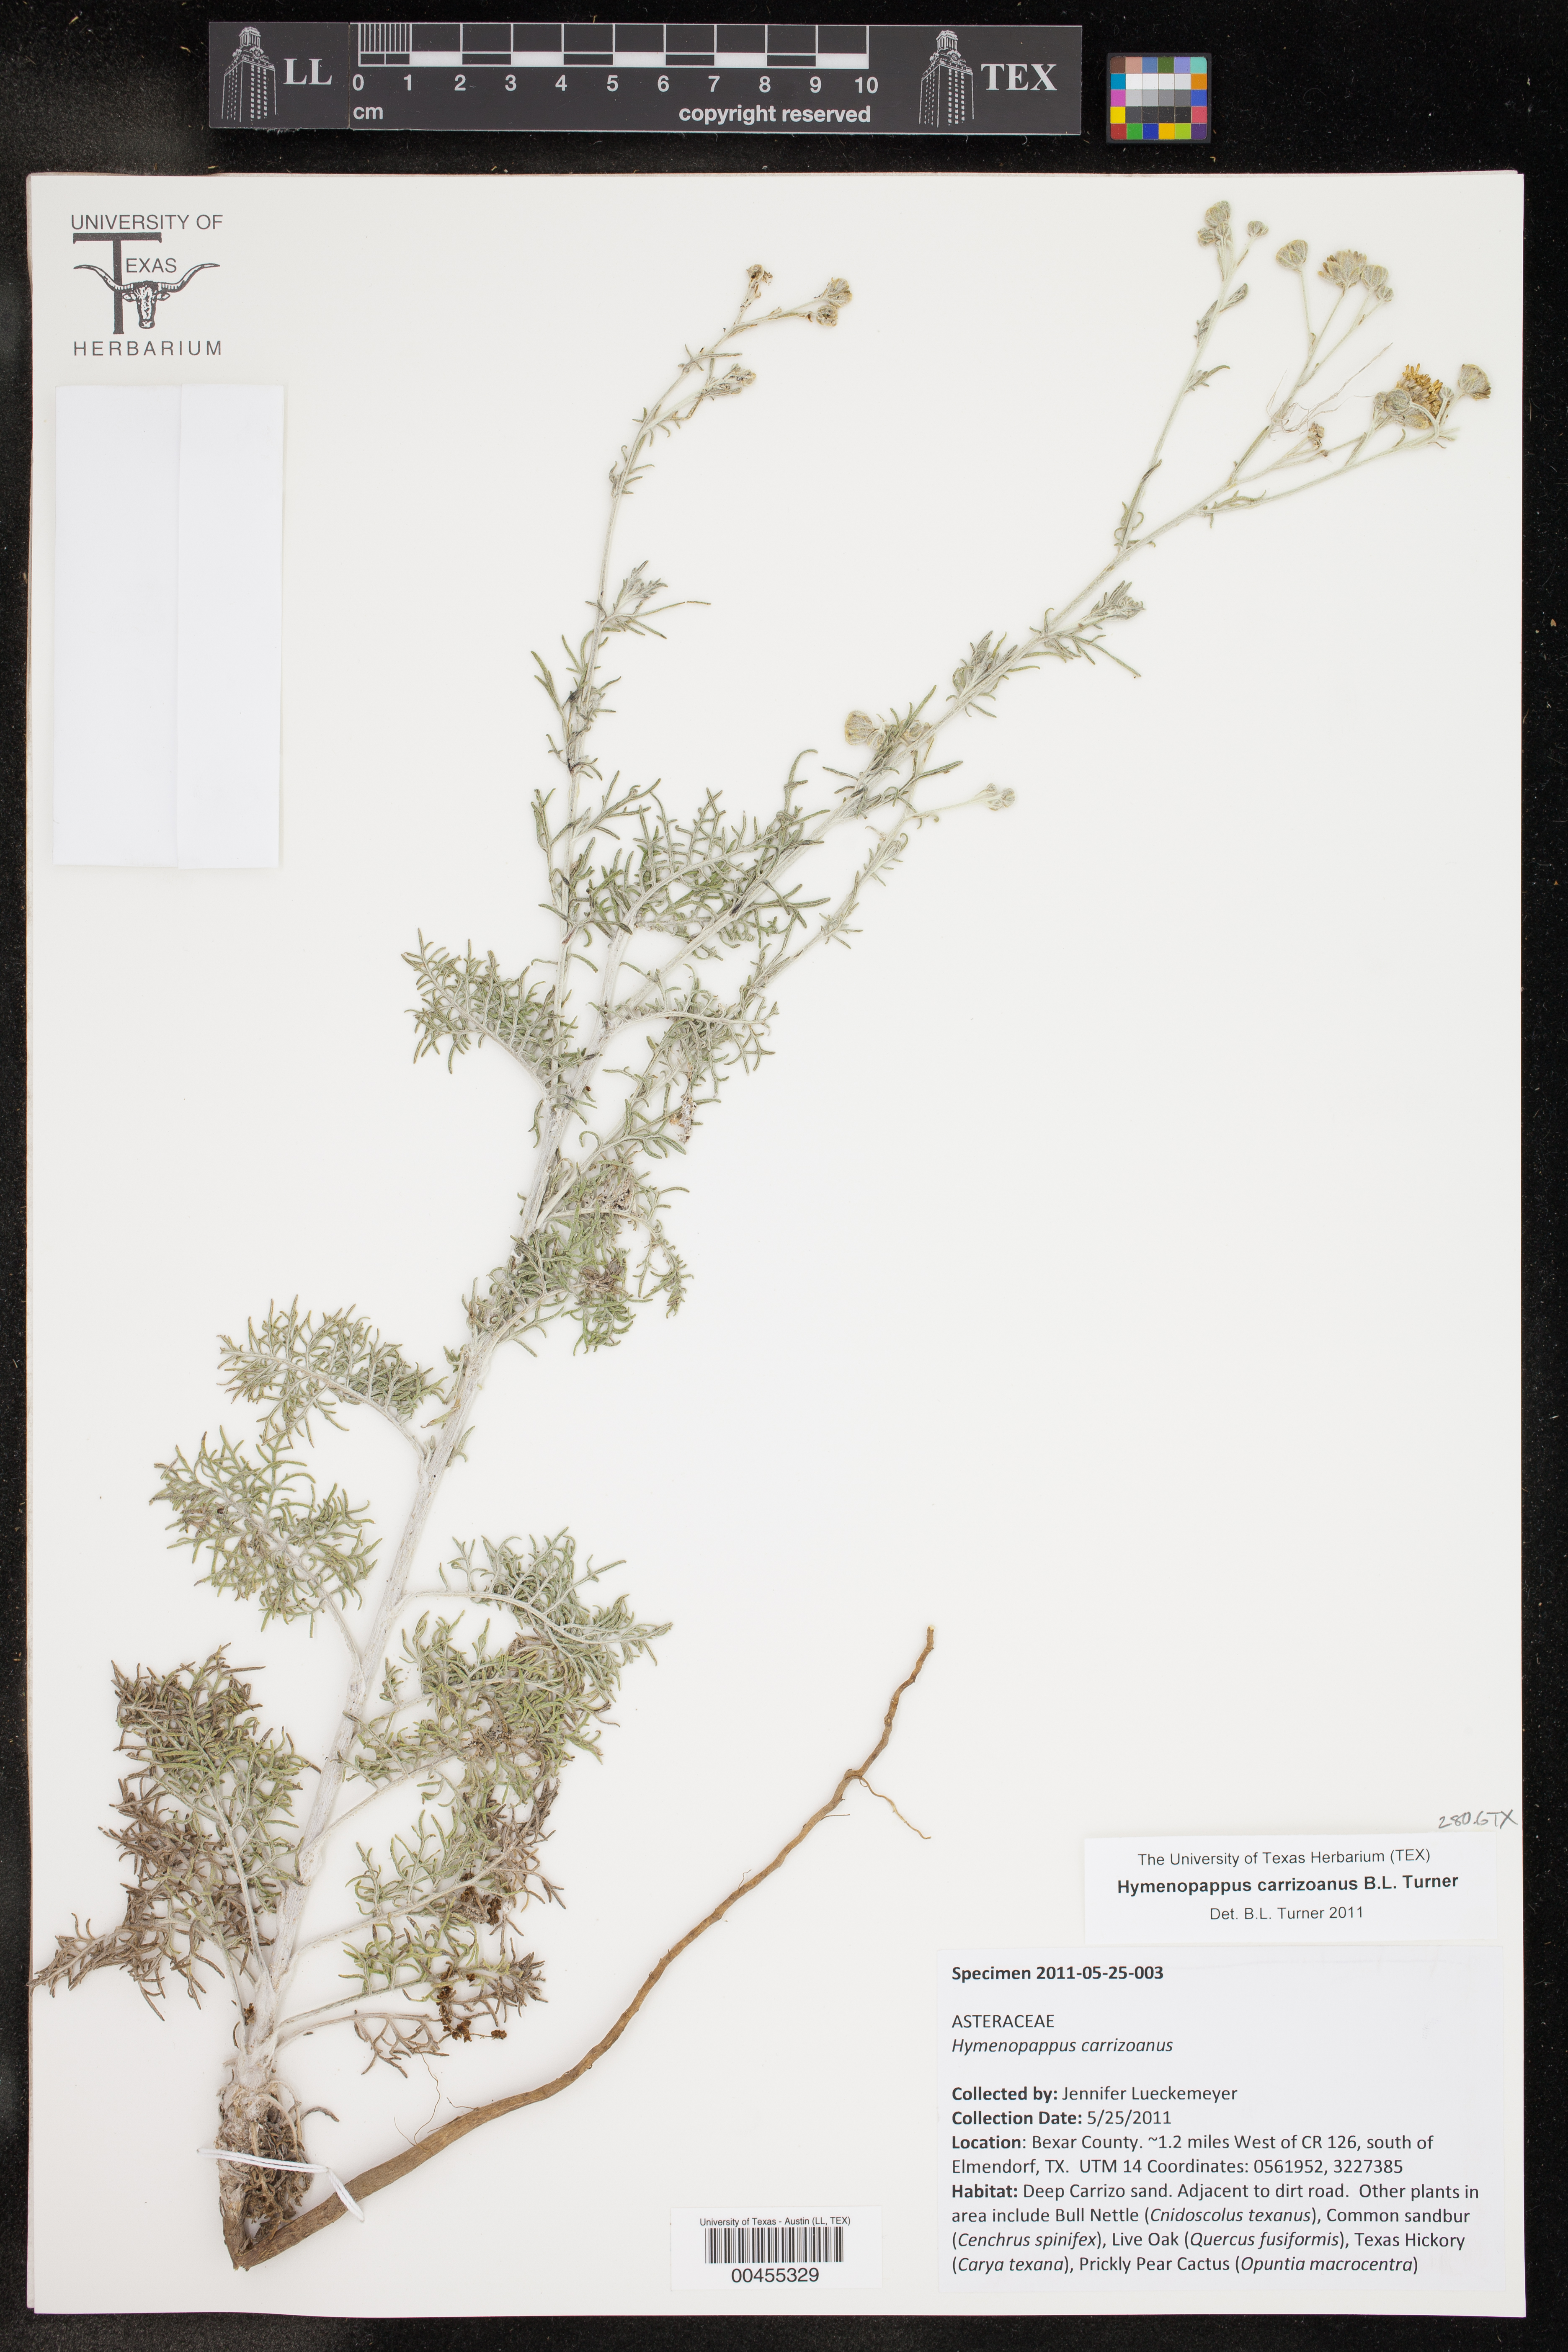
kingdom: Plantae
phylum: Tracheophyta
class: Magnoliopsida
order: Asterales
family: Asteraceae
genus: Hymenopappus
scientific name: Hymenopappus carrizoanus
